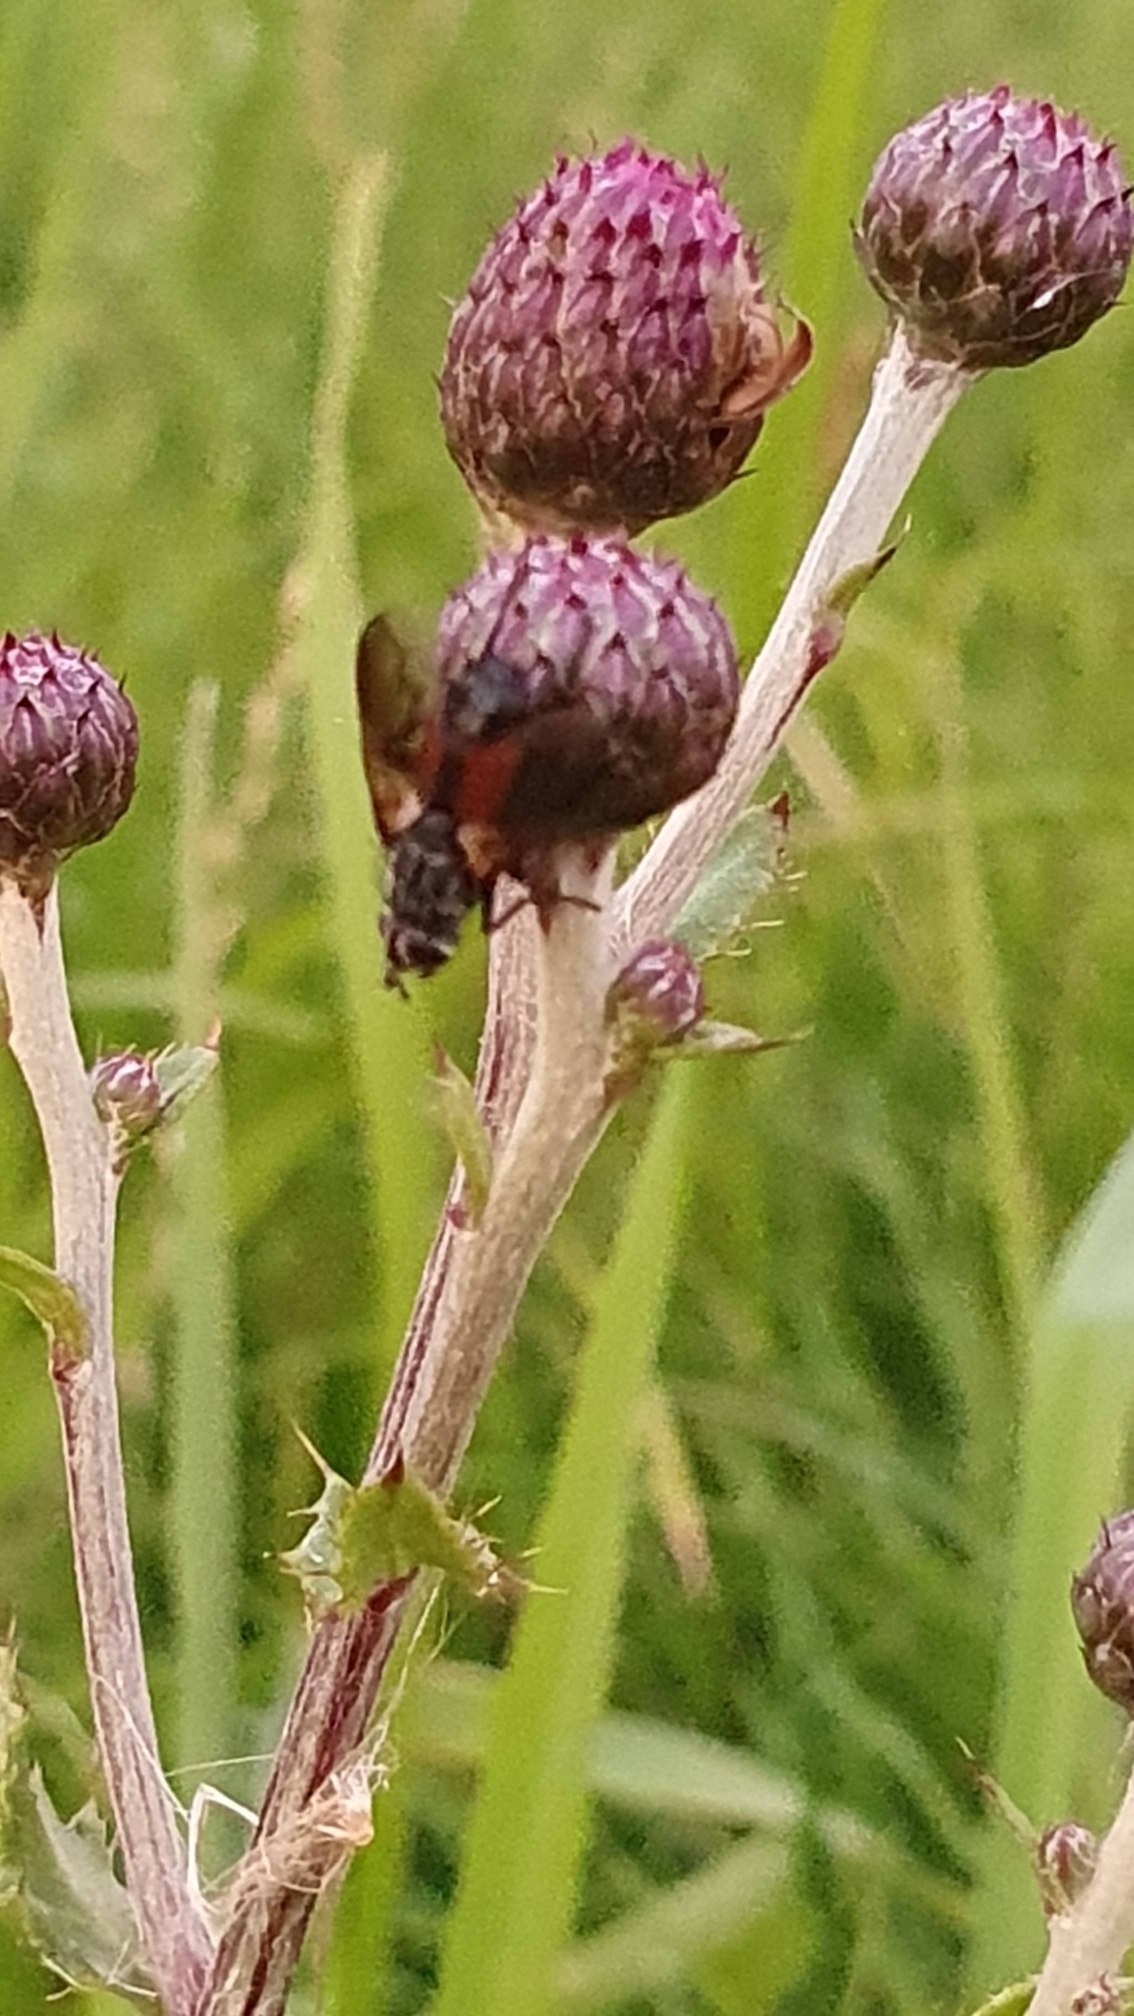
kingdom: Animalia
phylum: Arthropoda
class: Insecta
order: Diptera
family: Tachinidae
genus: Eriothrix
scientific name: Eriothrix rufomaculatus
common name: Rød snylteflue
